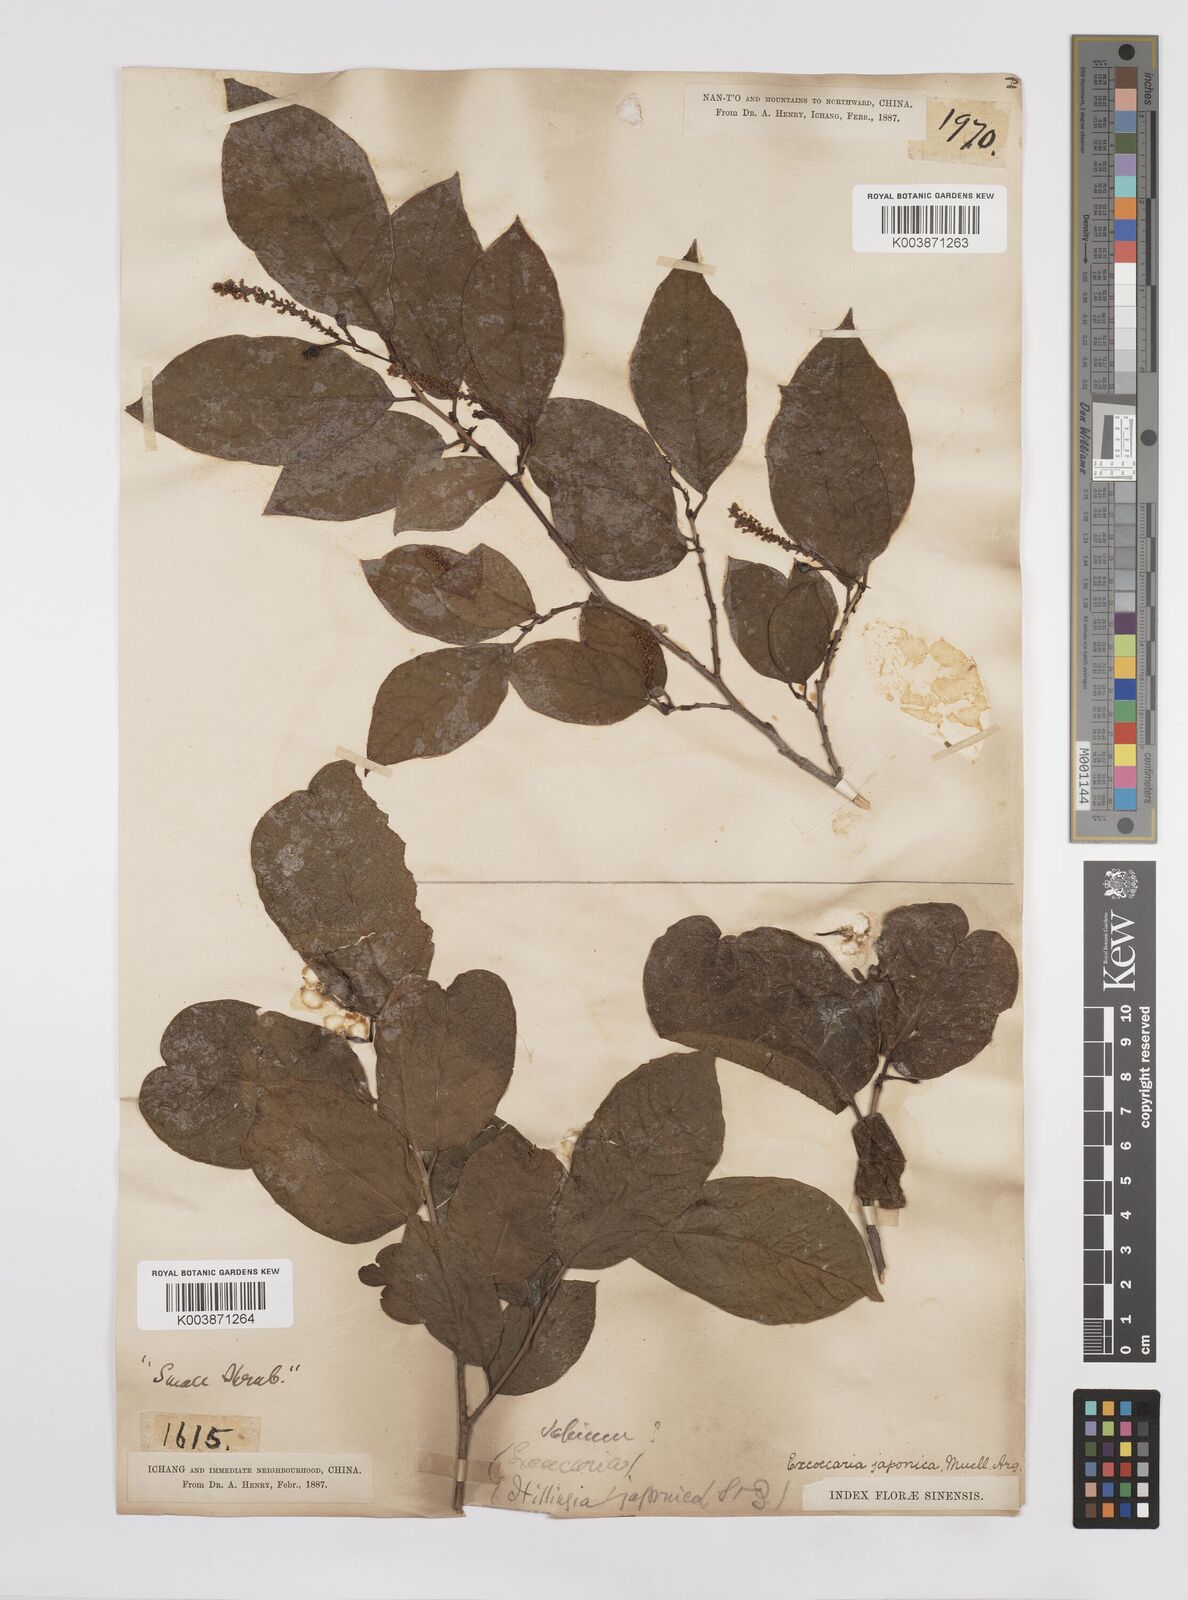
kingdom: Plantae
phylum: Tracheophyta
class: Magnoliopsida
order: Malpighiales
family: Euphorbiaceae
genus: Neoshirakia
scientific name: Neoshirakia japonica
